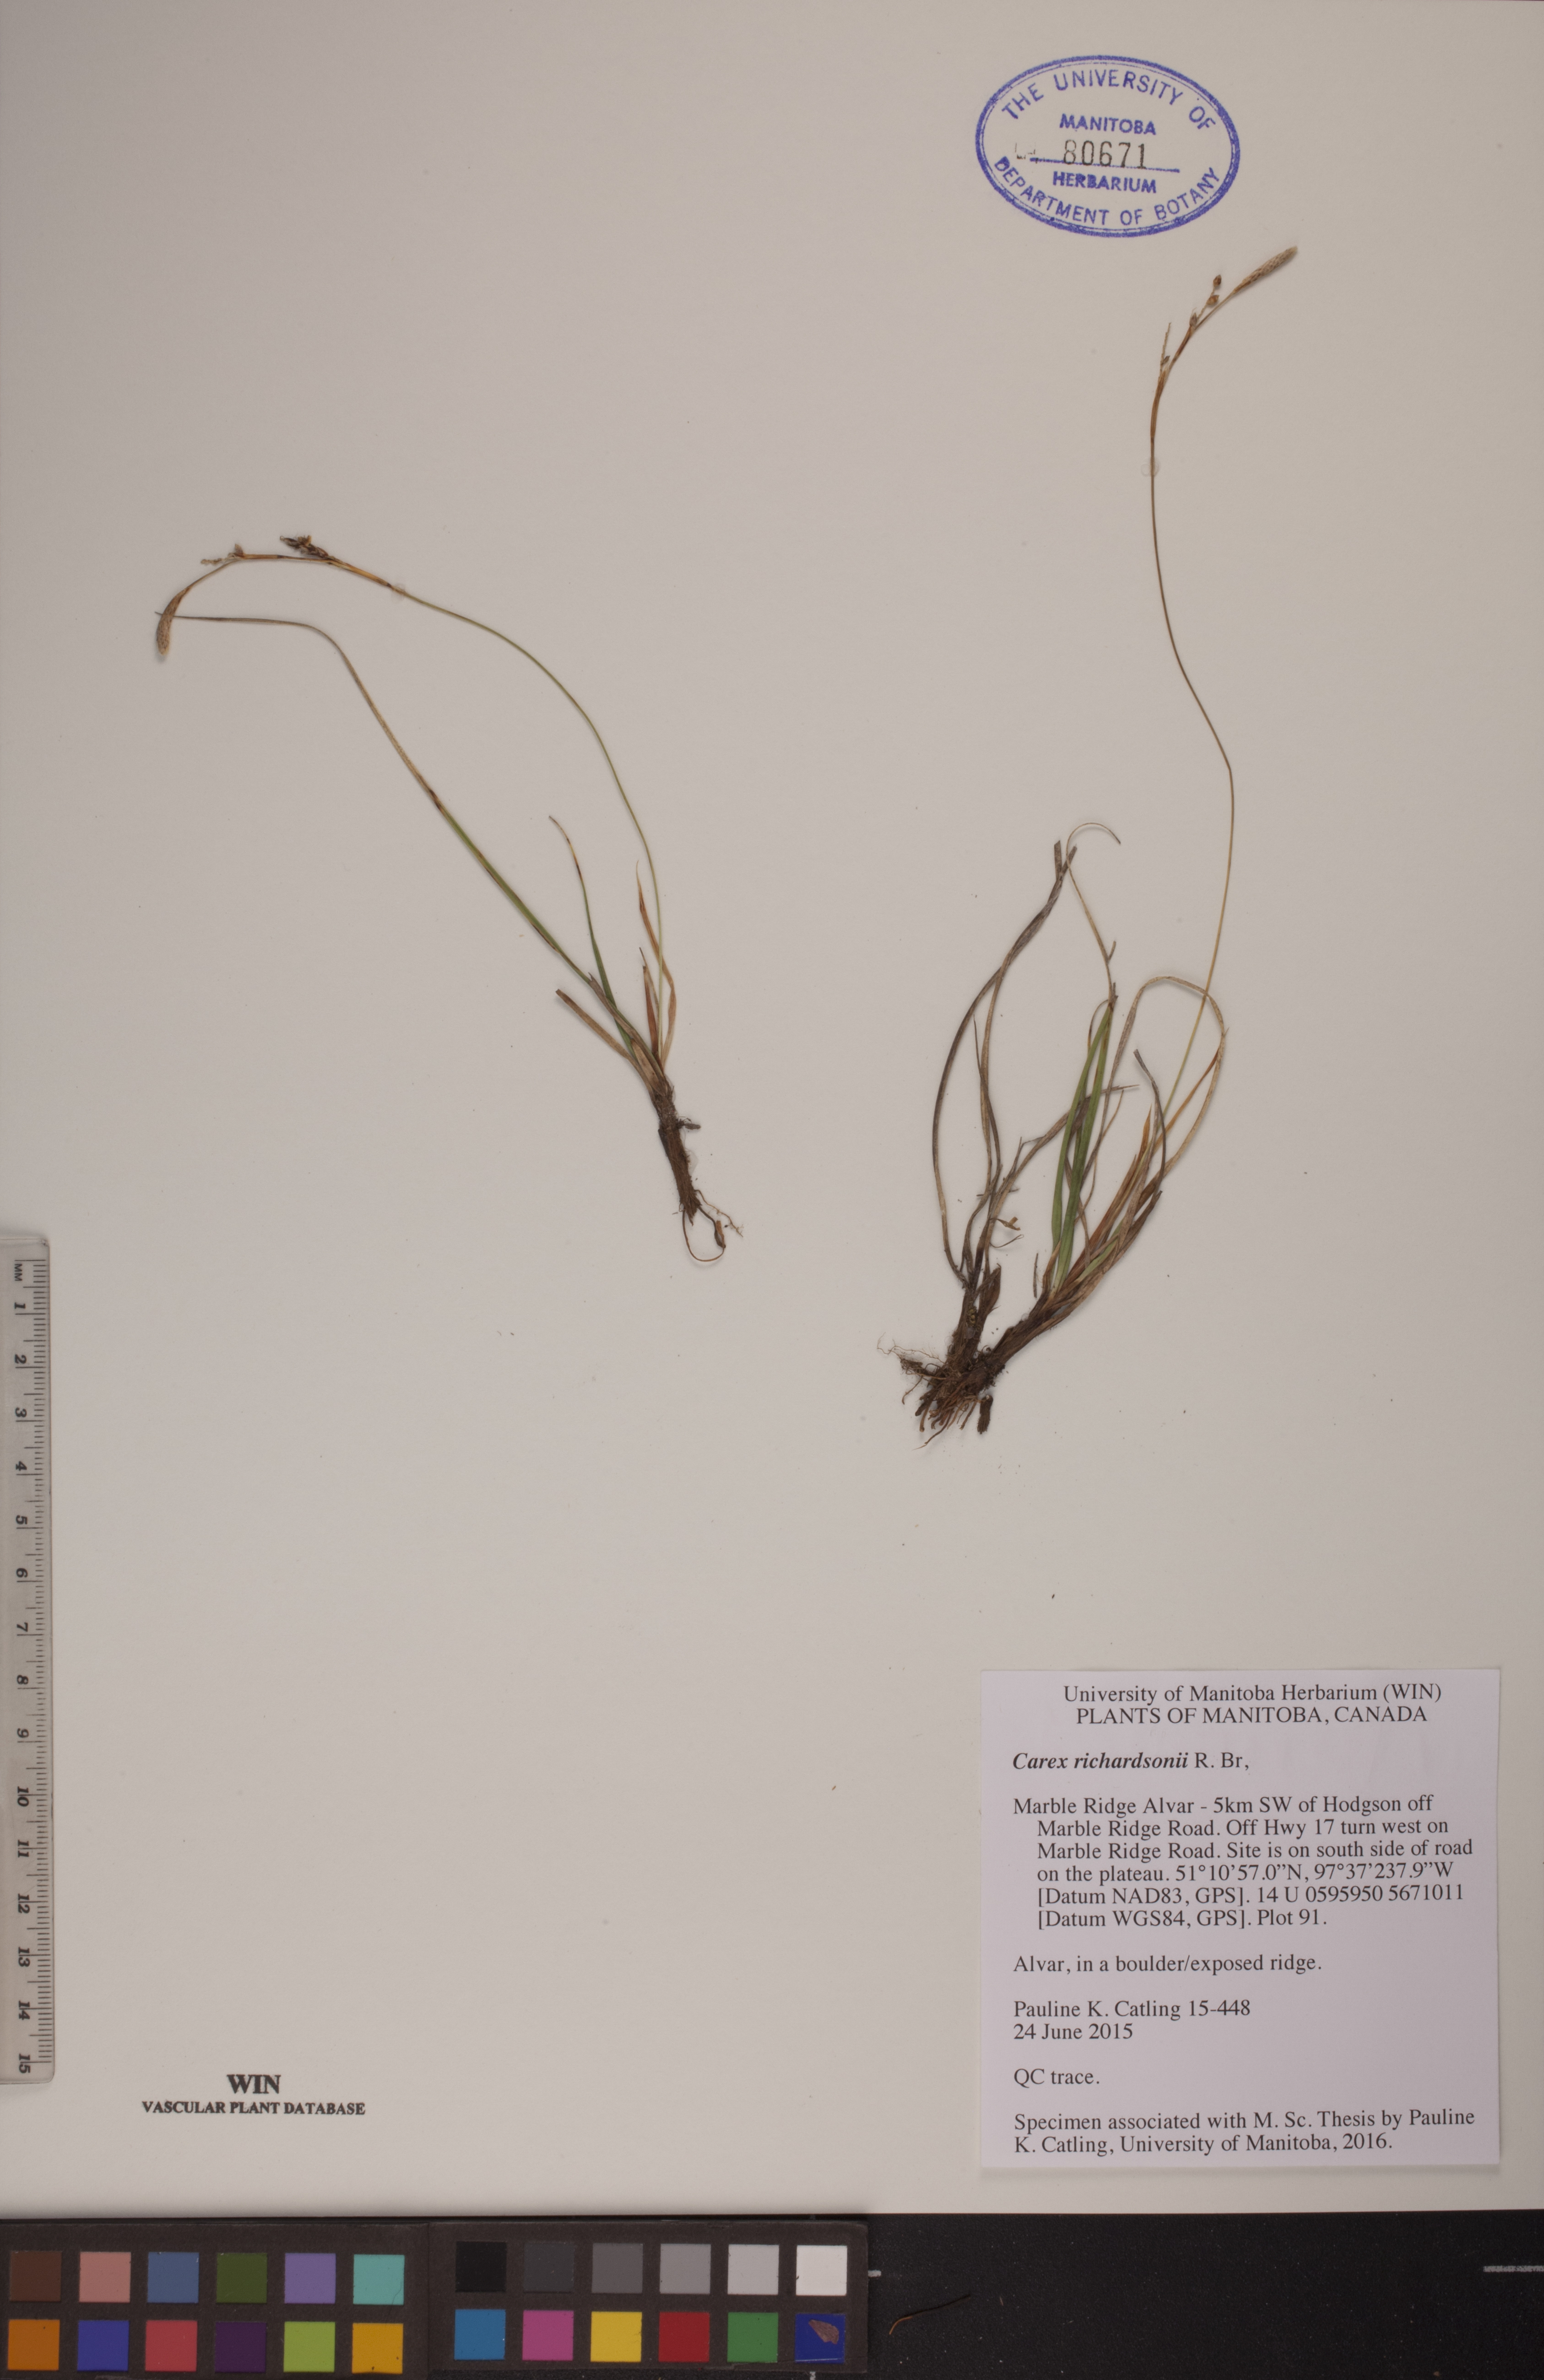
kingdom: Plantae
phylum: Tracheophyta
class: Liliopsida
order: Poales
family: Cyperaceae
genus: Carex
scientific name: Carex richardsonii
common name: Prairie hummock sedge
